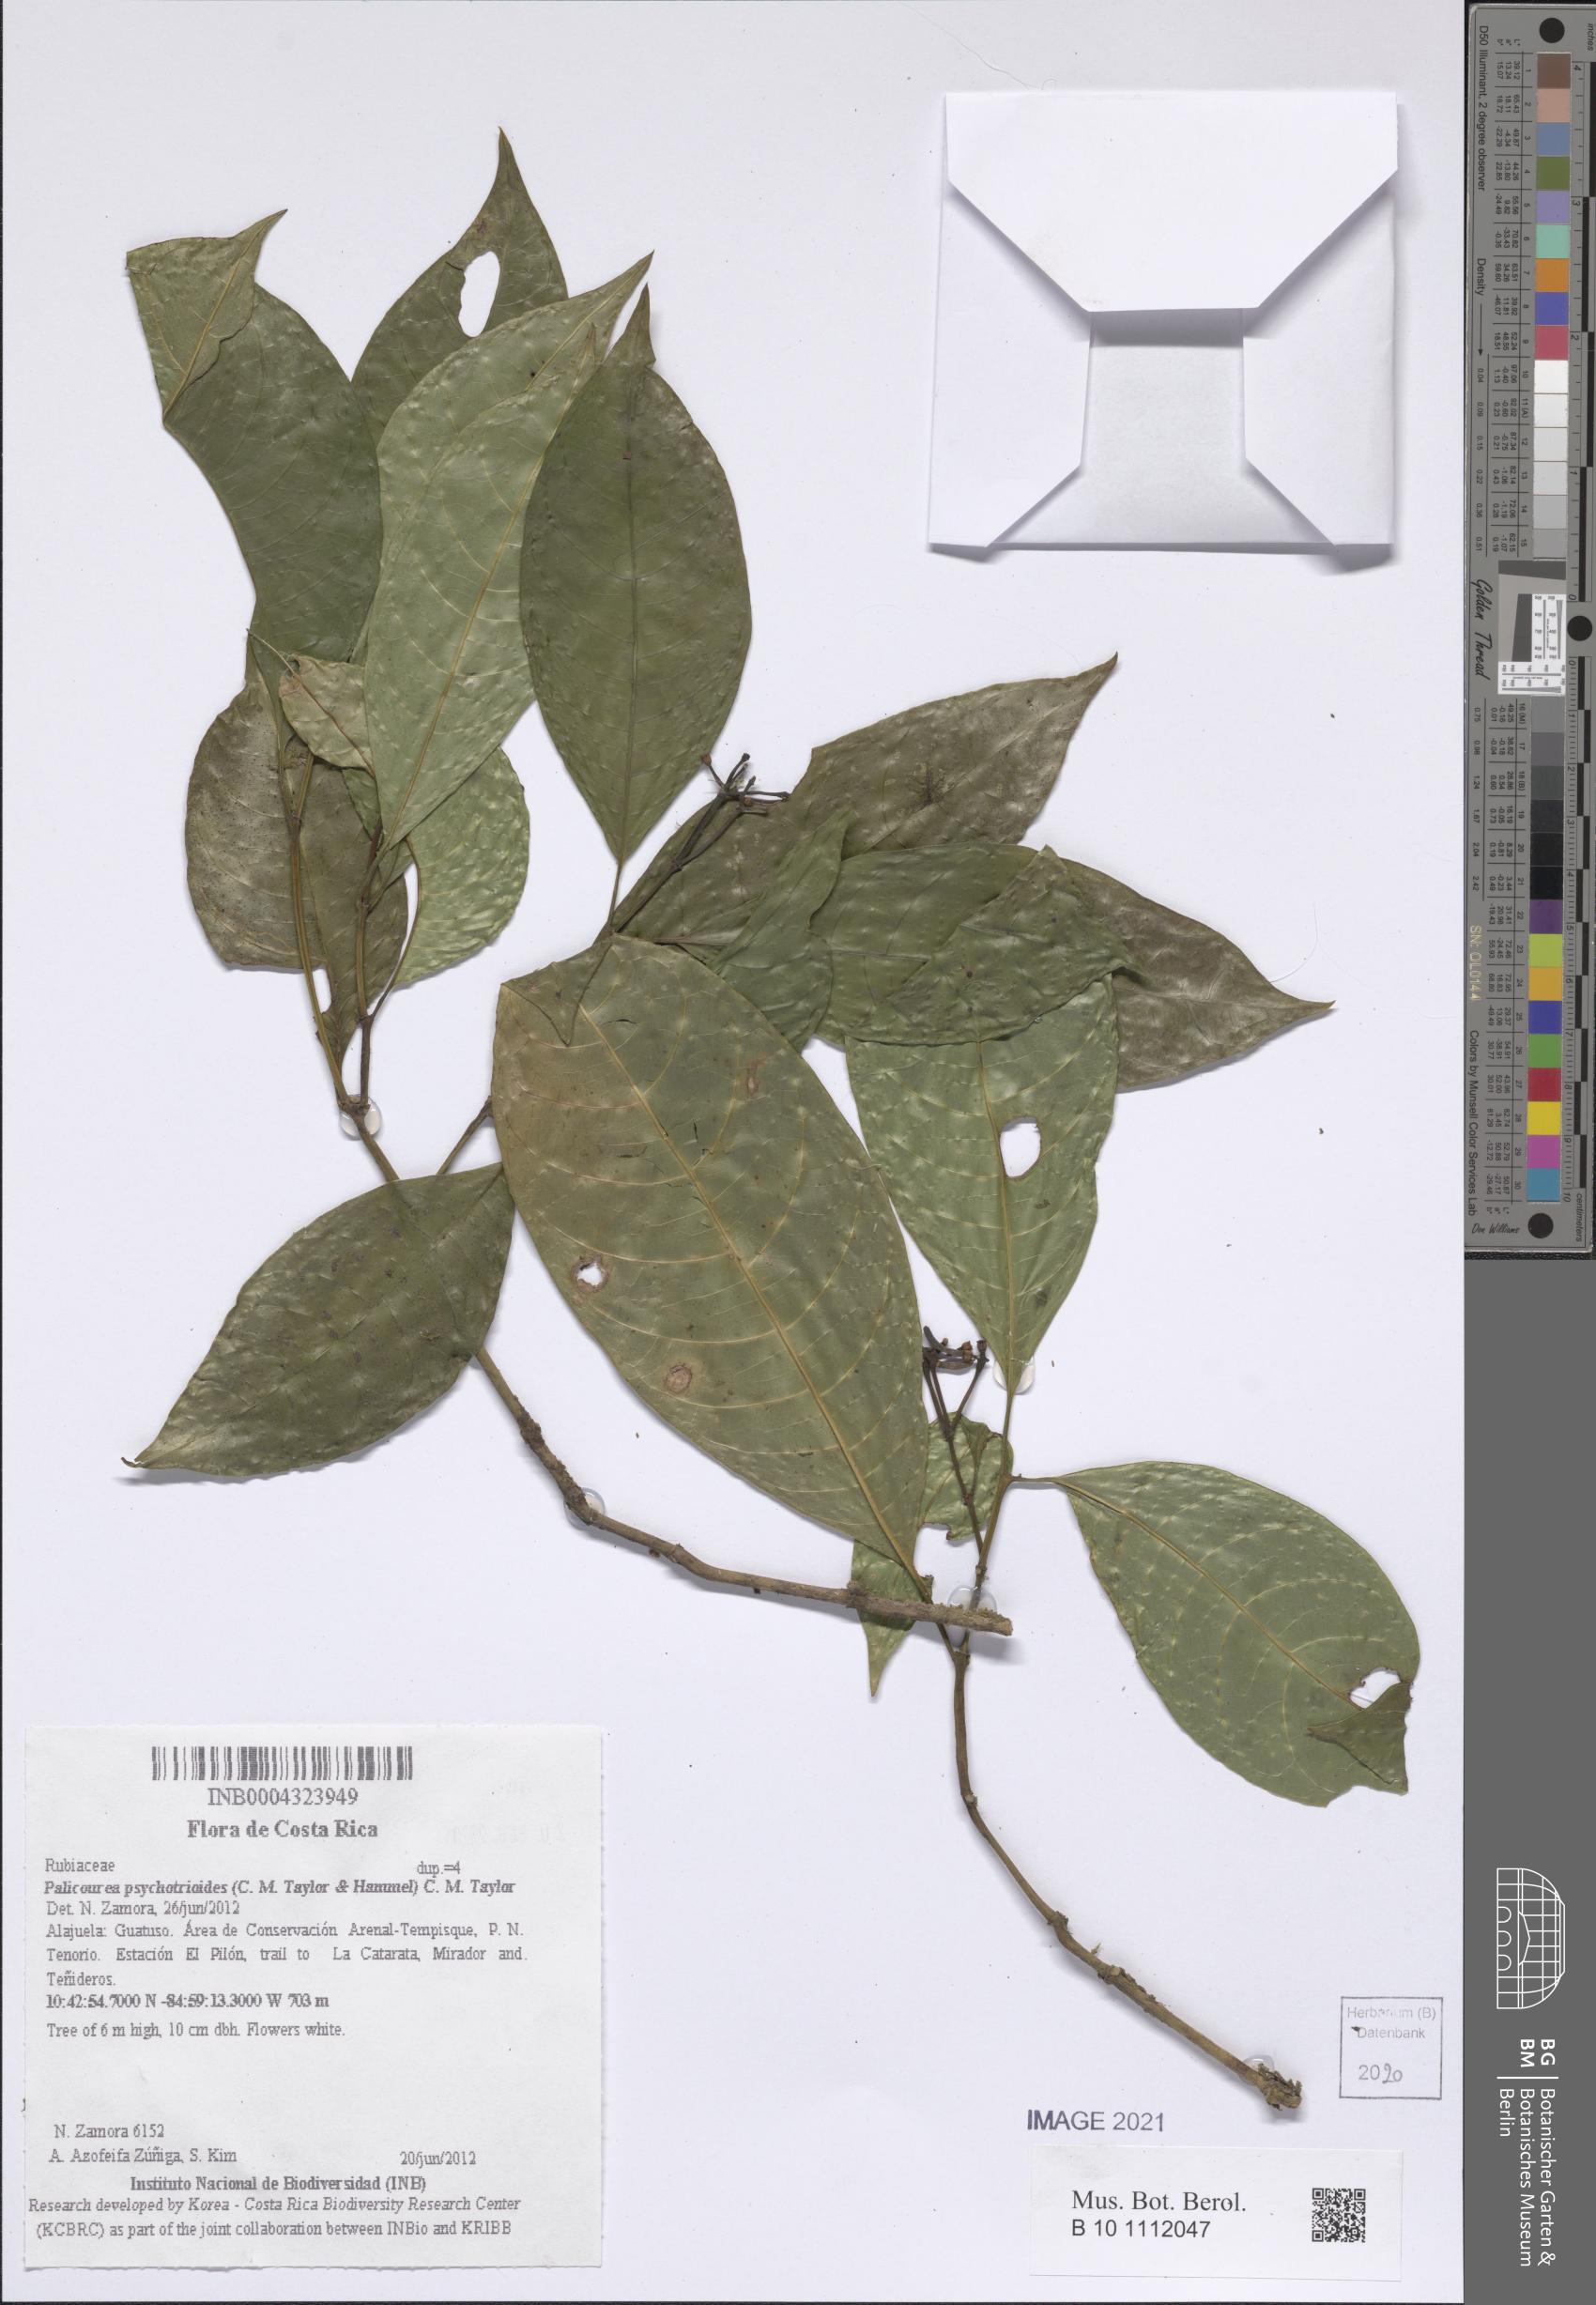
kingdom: Plantae
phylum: Tracheophyta
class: Magnoliopsida
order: Gentianales
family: Rubiaceae
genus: Palicourea
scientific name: Palicourea psychotrioides
